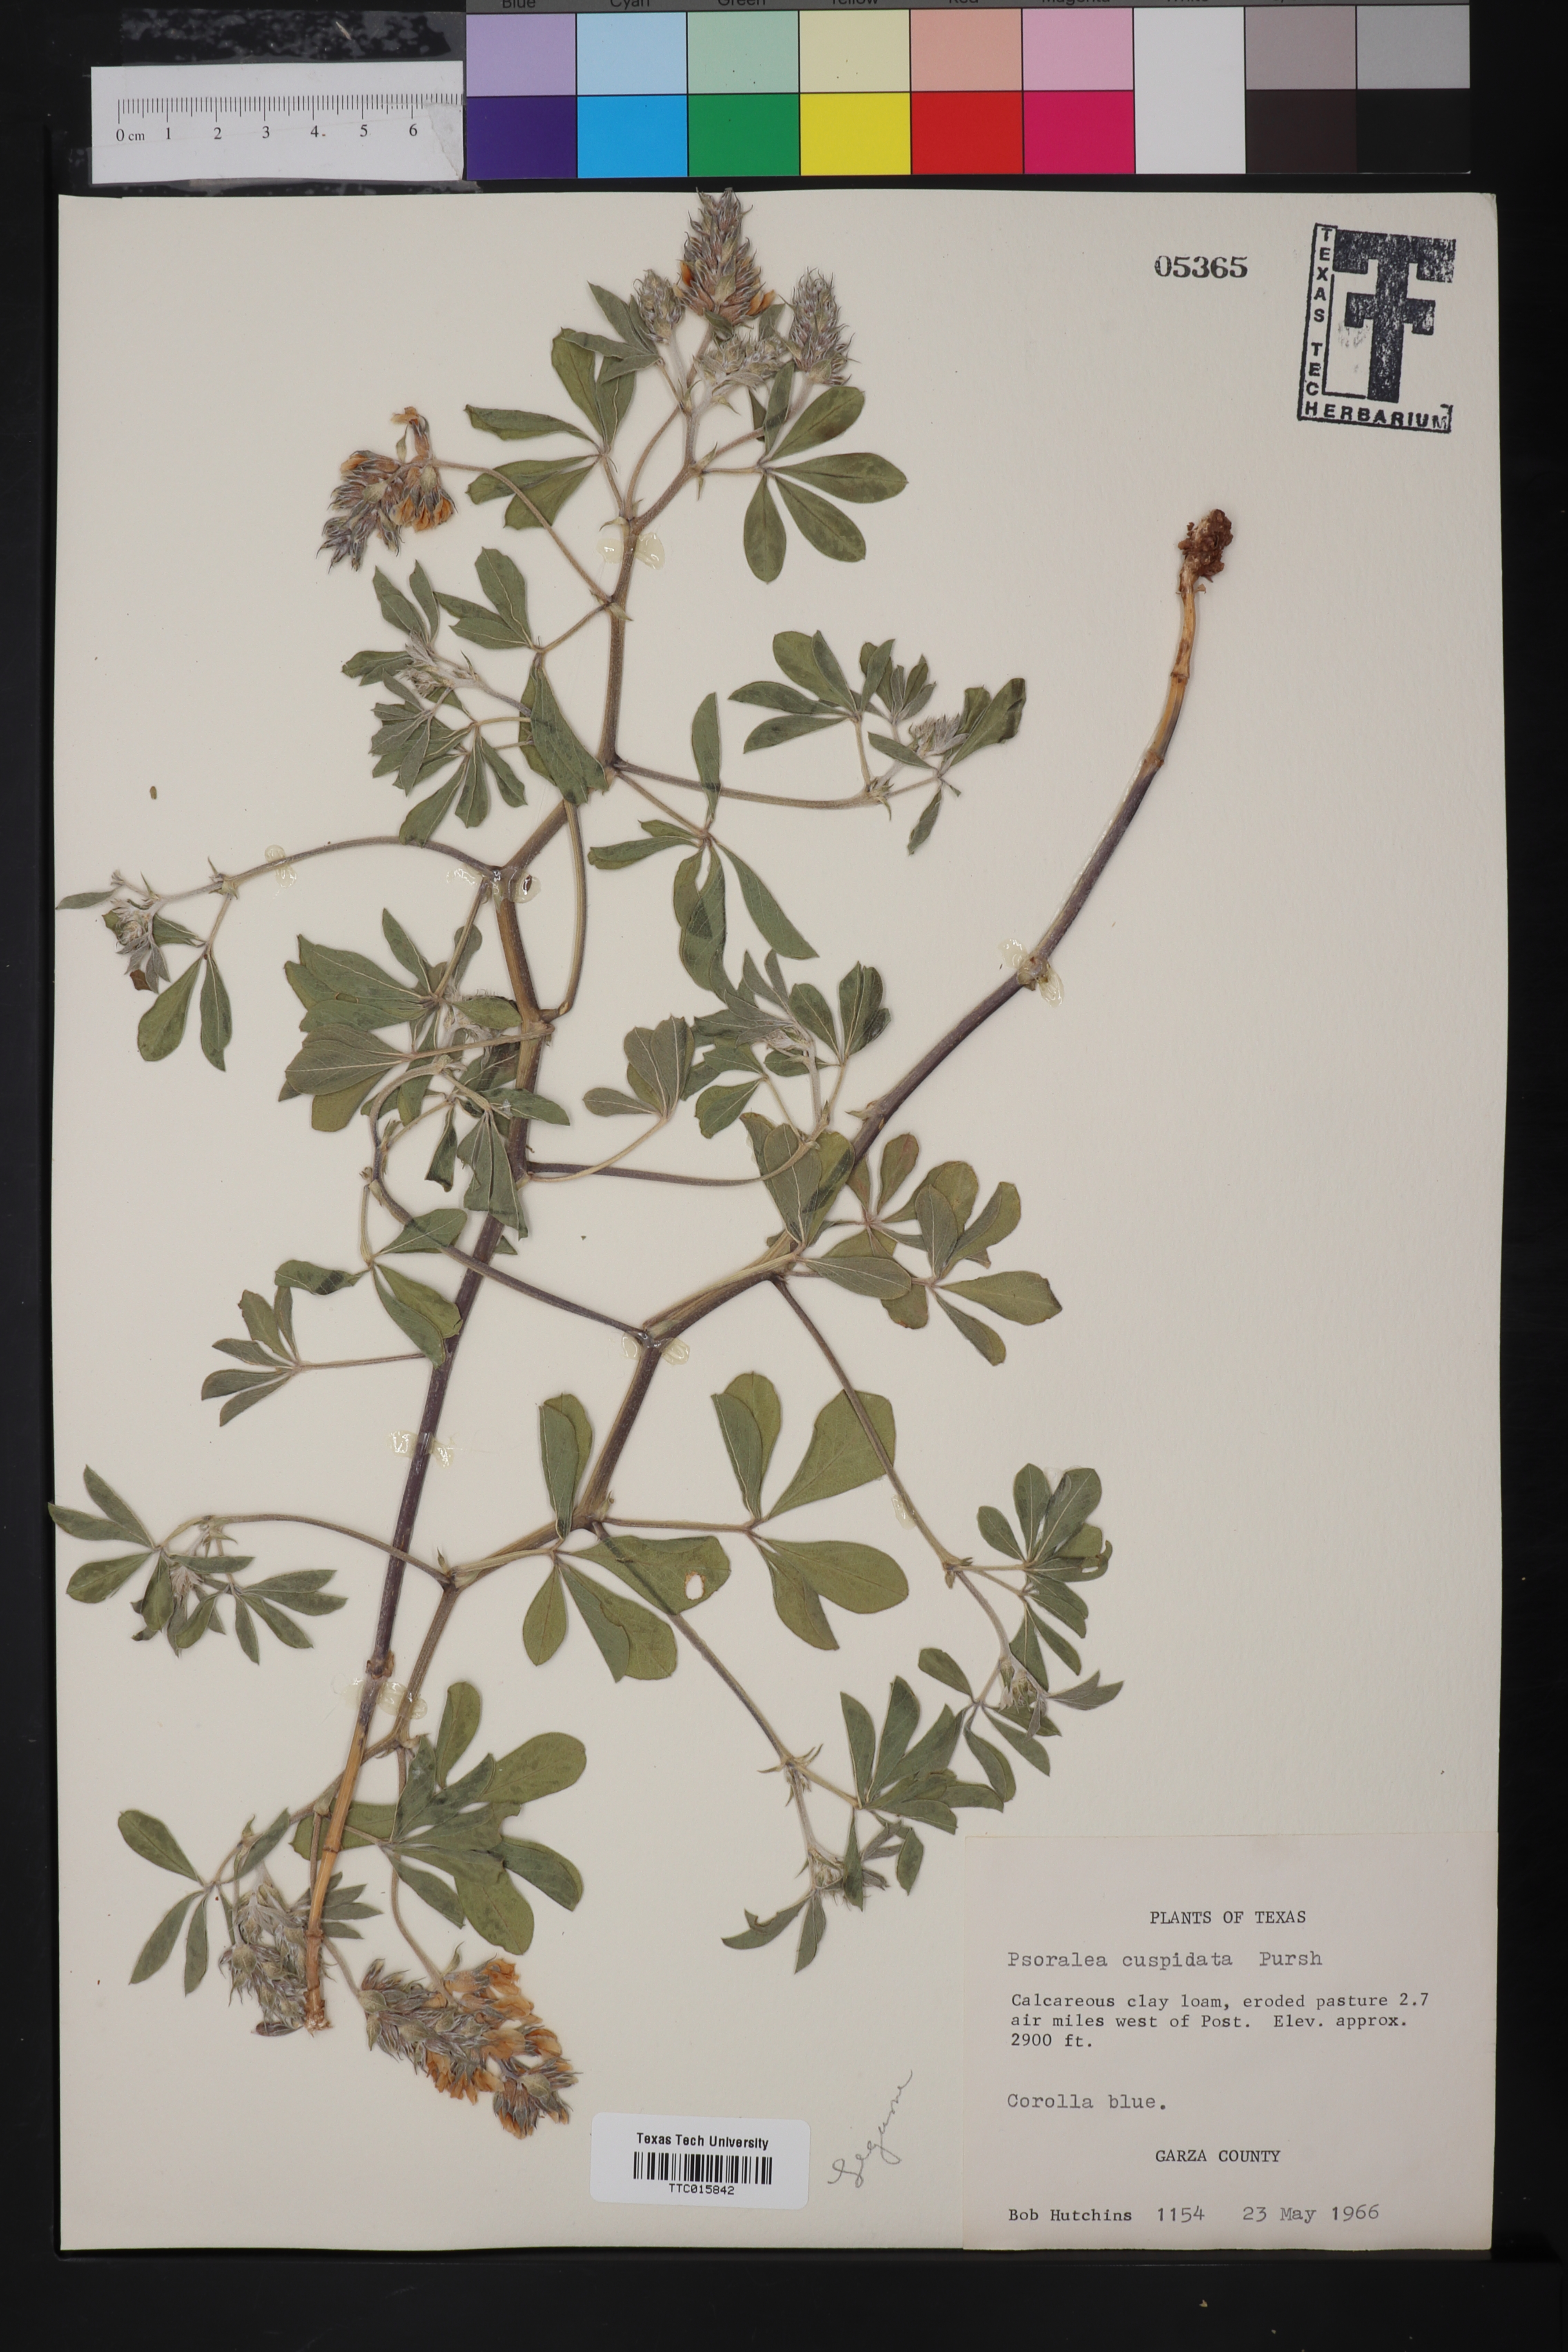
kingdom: Plantae
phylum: Tracheophyta
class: Magnoliopsida
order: Fabales
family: Fabaceae
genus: Pediomelum
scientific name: Pediomelum cuspidatum
